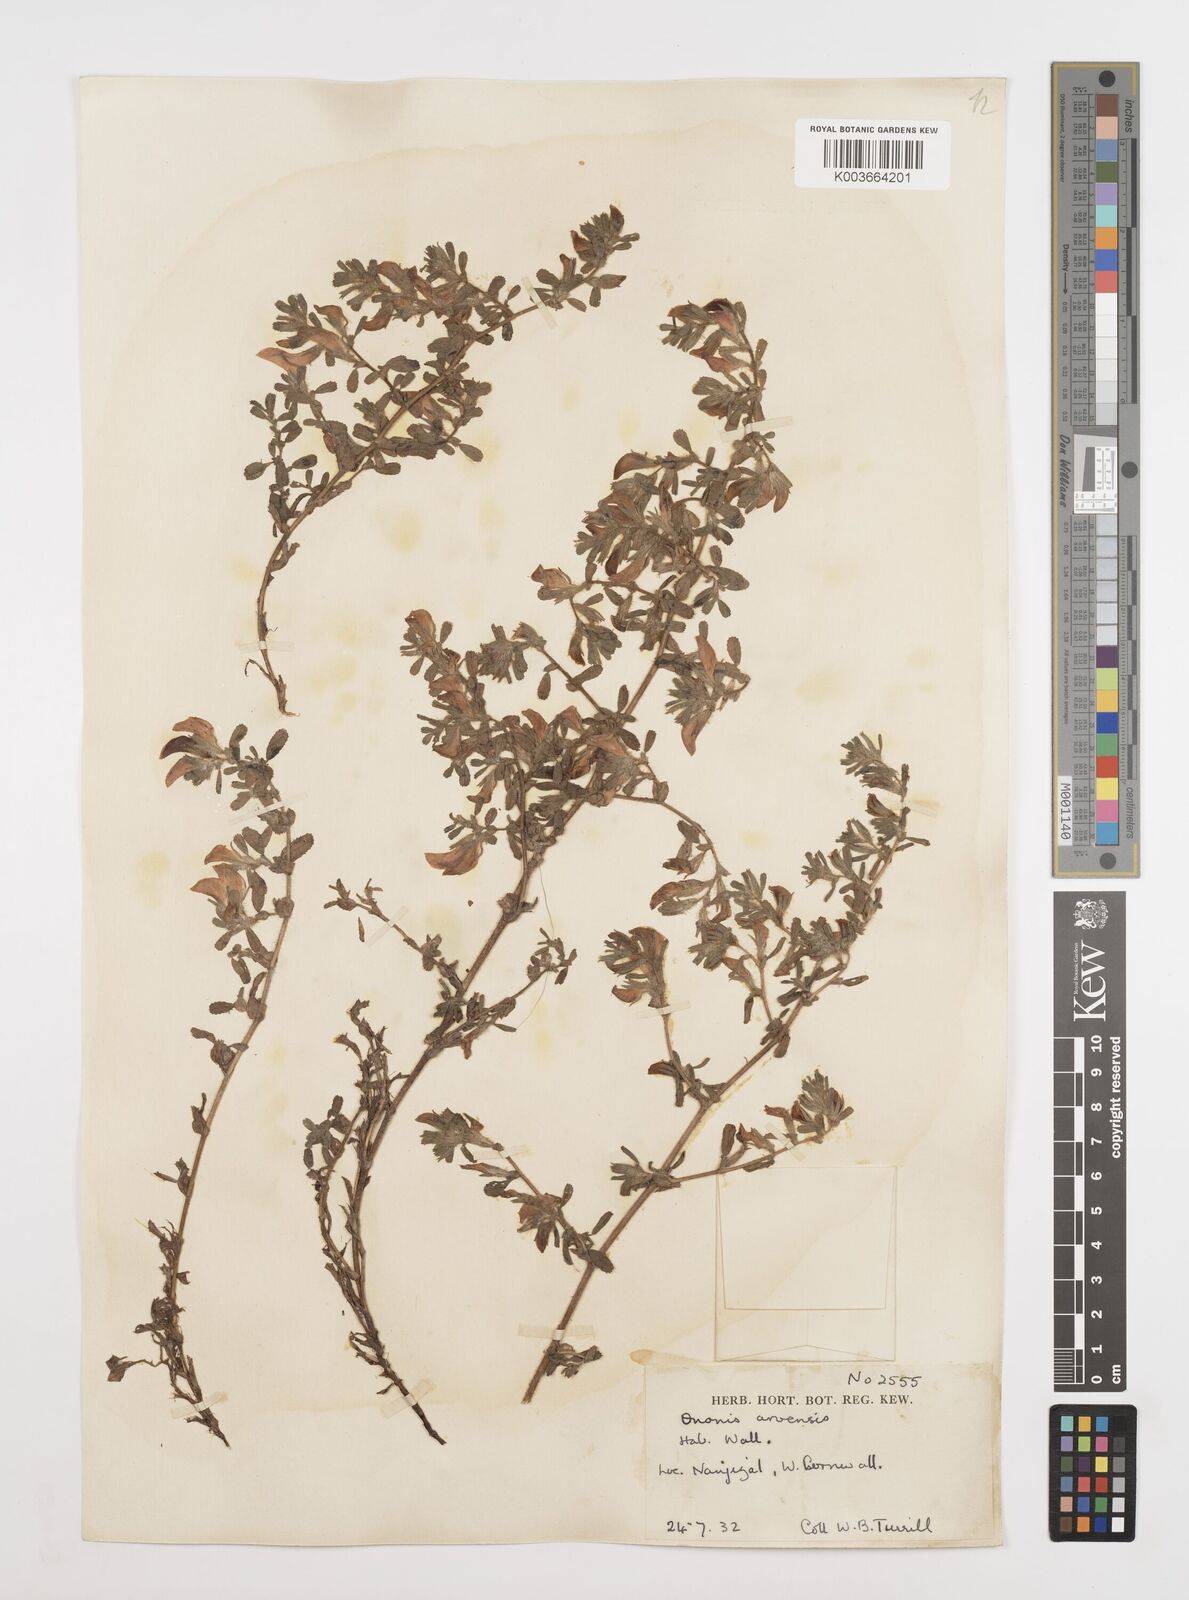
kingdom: Plantae
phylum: Tracheophyta
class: Magnoliopsida
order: Fabales
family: Fabaceae
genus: Ononis
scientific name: Ononis spinosa
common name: Spiny restharrow
